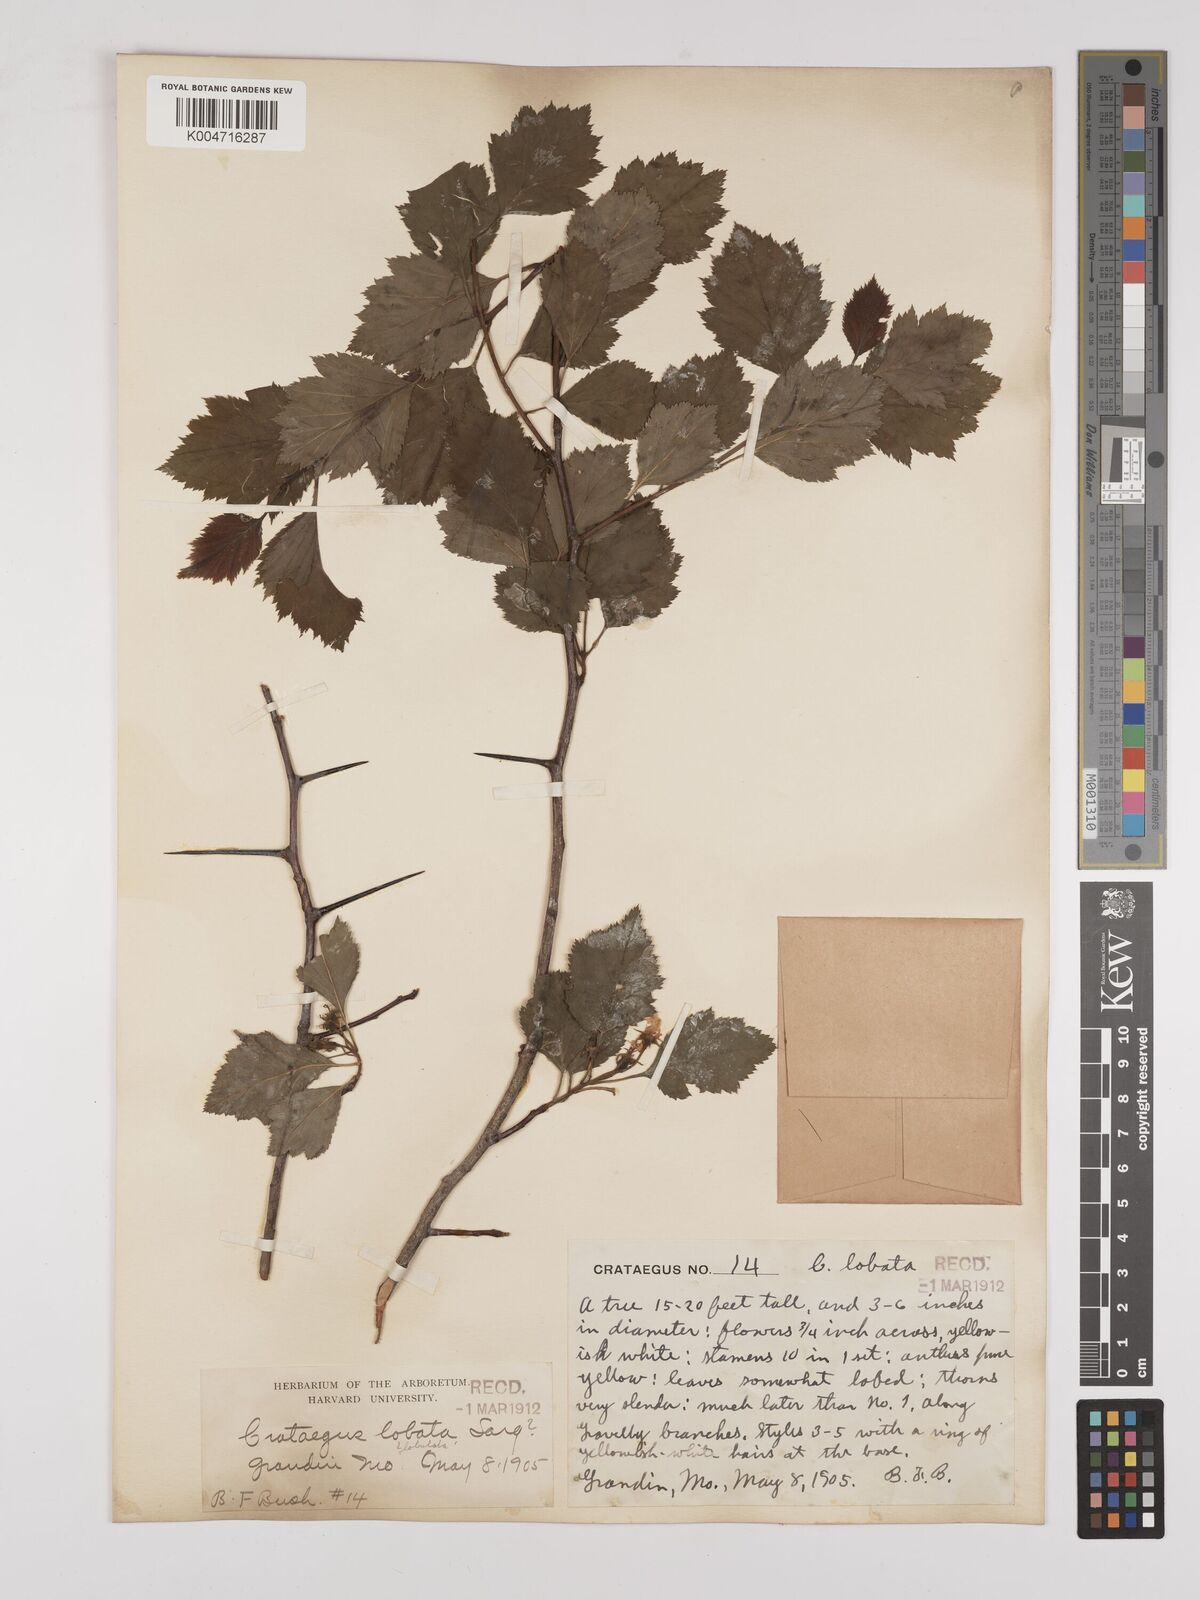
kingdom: Plantae
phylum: Tracheophyta
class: Magnoliopsida
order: Rosales
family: Rosaceae
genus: Crataemespilus
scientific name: Crataemespilus lobata
